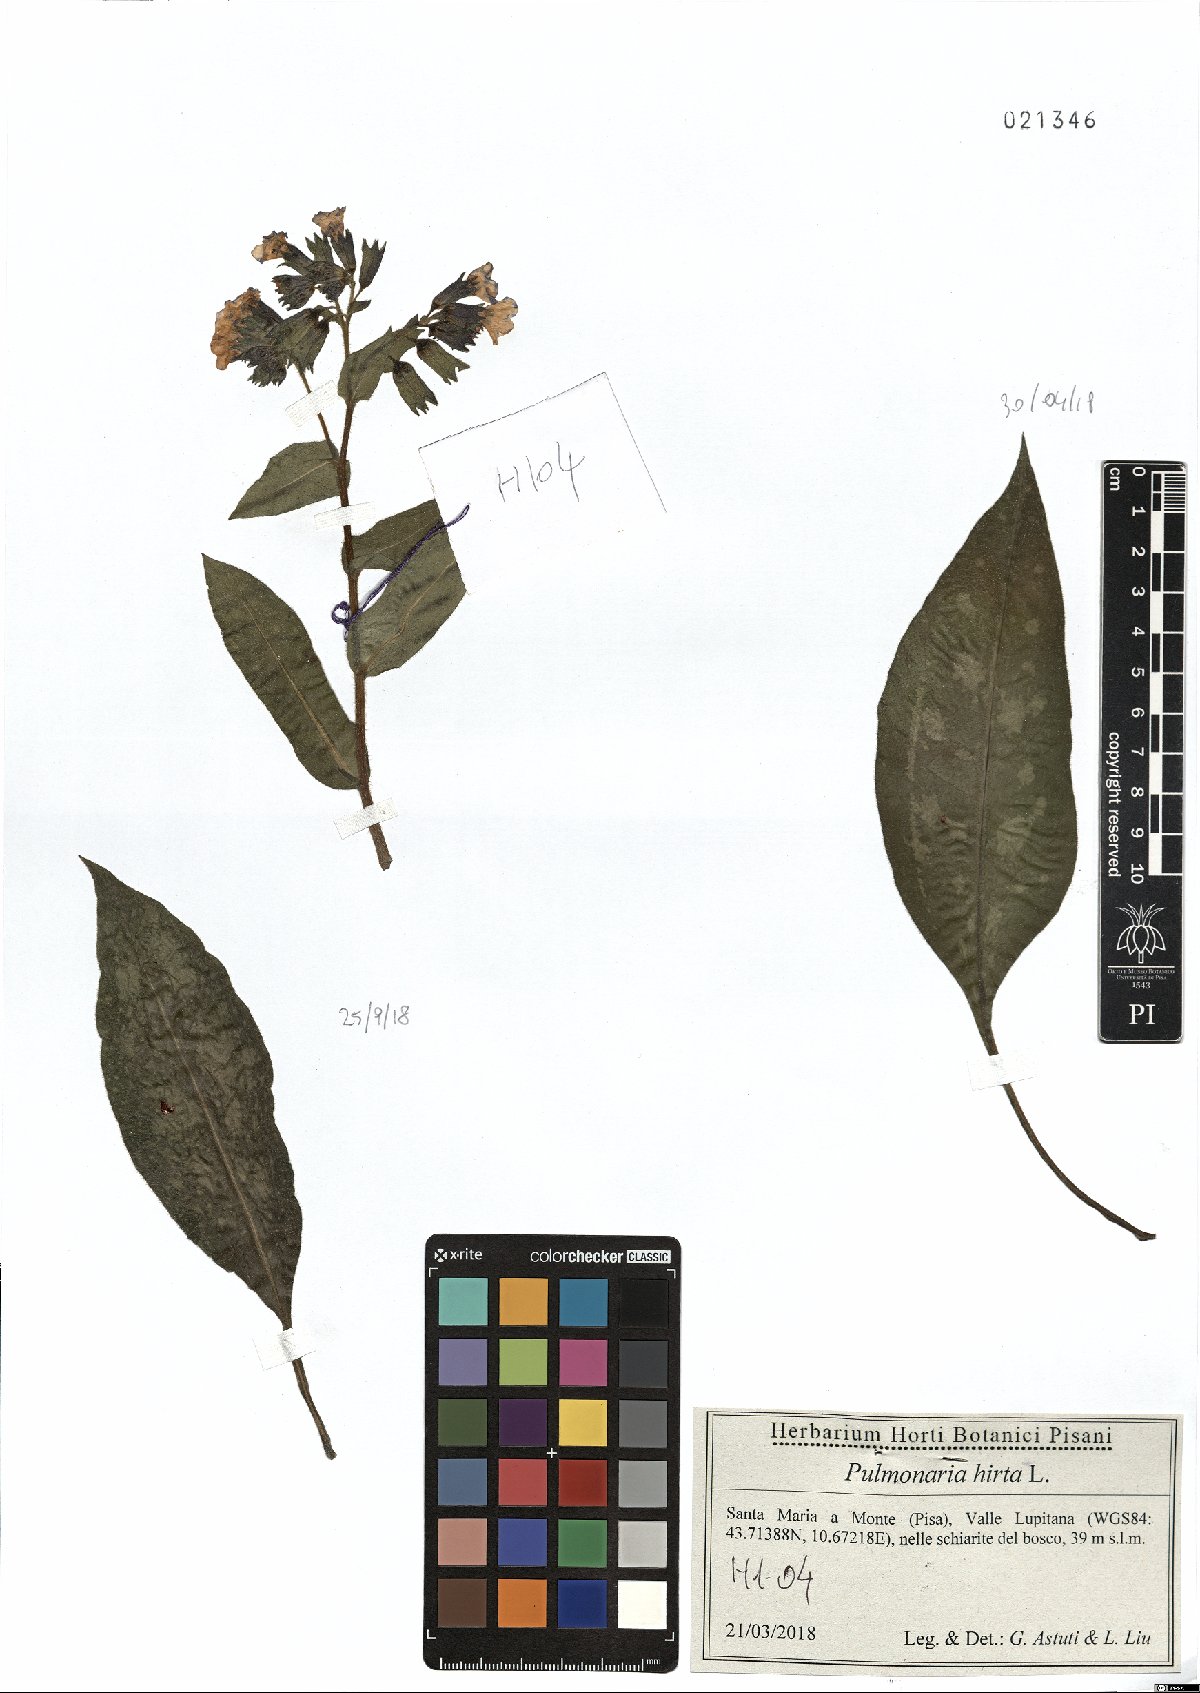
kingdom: Plantae
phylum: Tracheophyta
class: Magnoliopsida
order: Boraginales
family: Boraginaceae
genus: Pulmonaria
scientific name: Pulmonaria hirta
